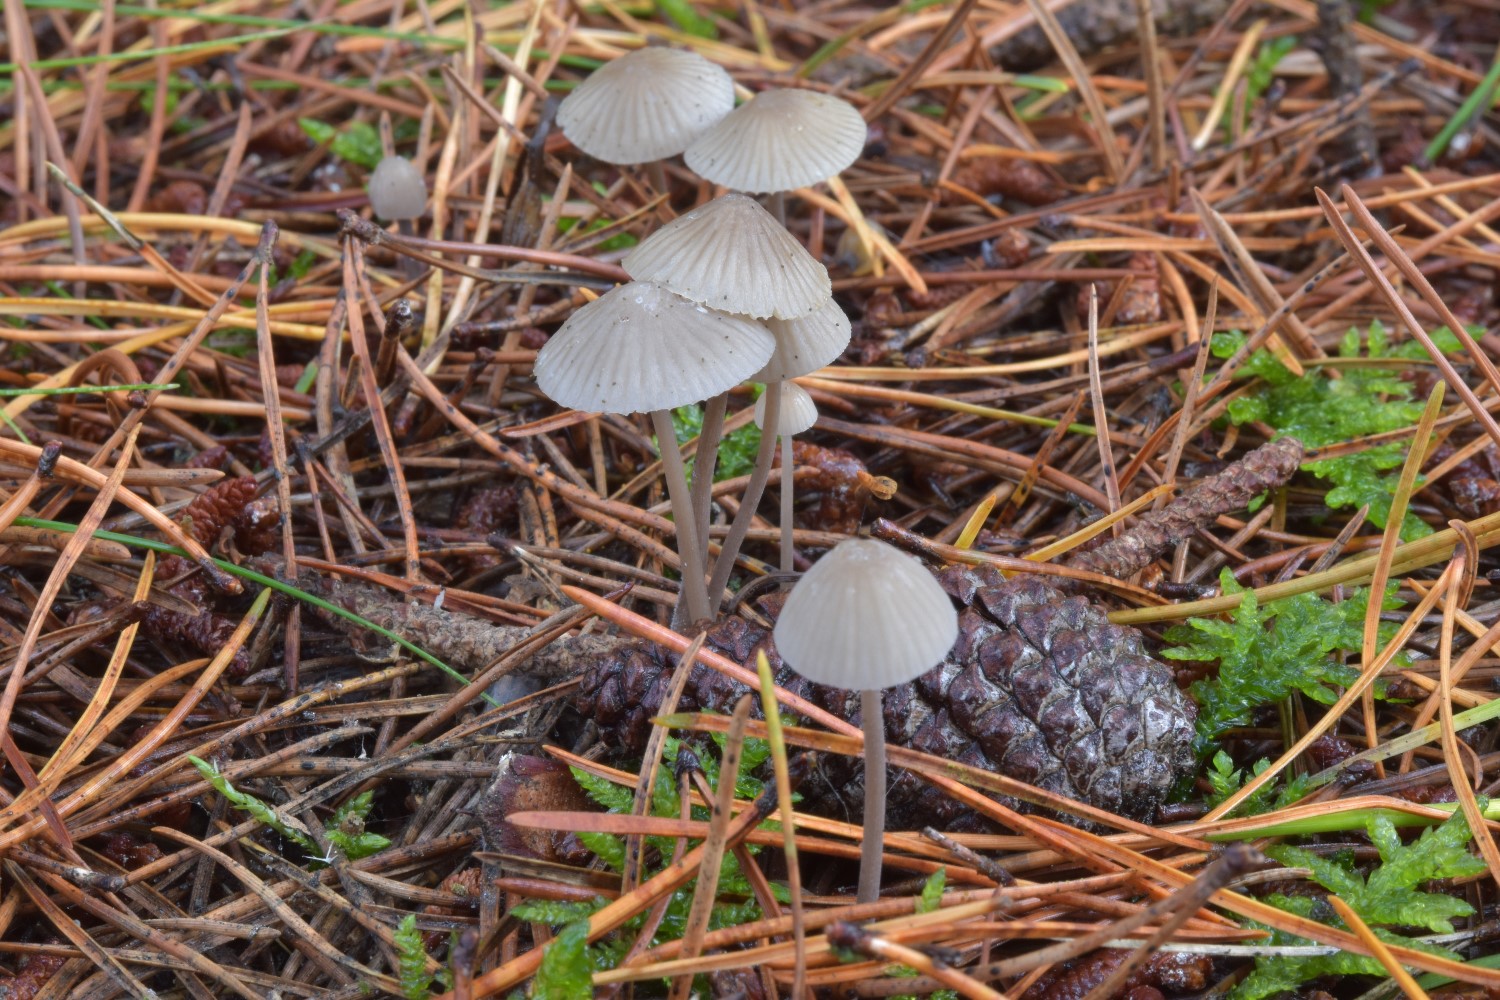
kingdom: Fungi
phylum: Basidiomycota
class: Agaricomycetes
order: Agaricales
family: Mycenaceae
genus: Mycena
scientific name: Mycena galopus
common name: hvidmælket huesvamp
